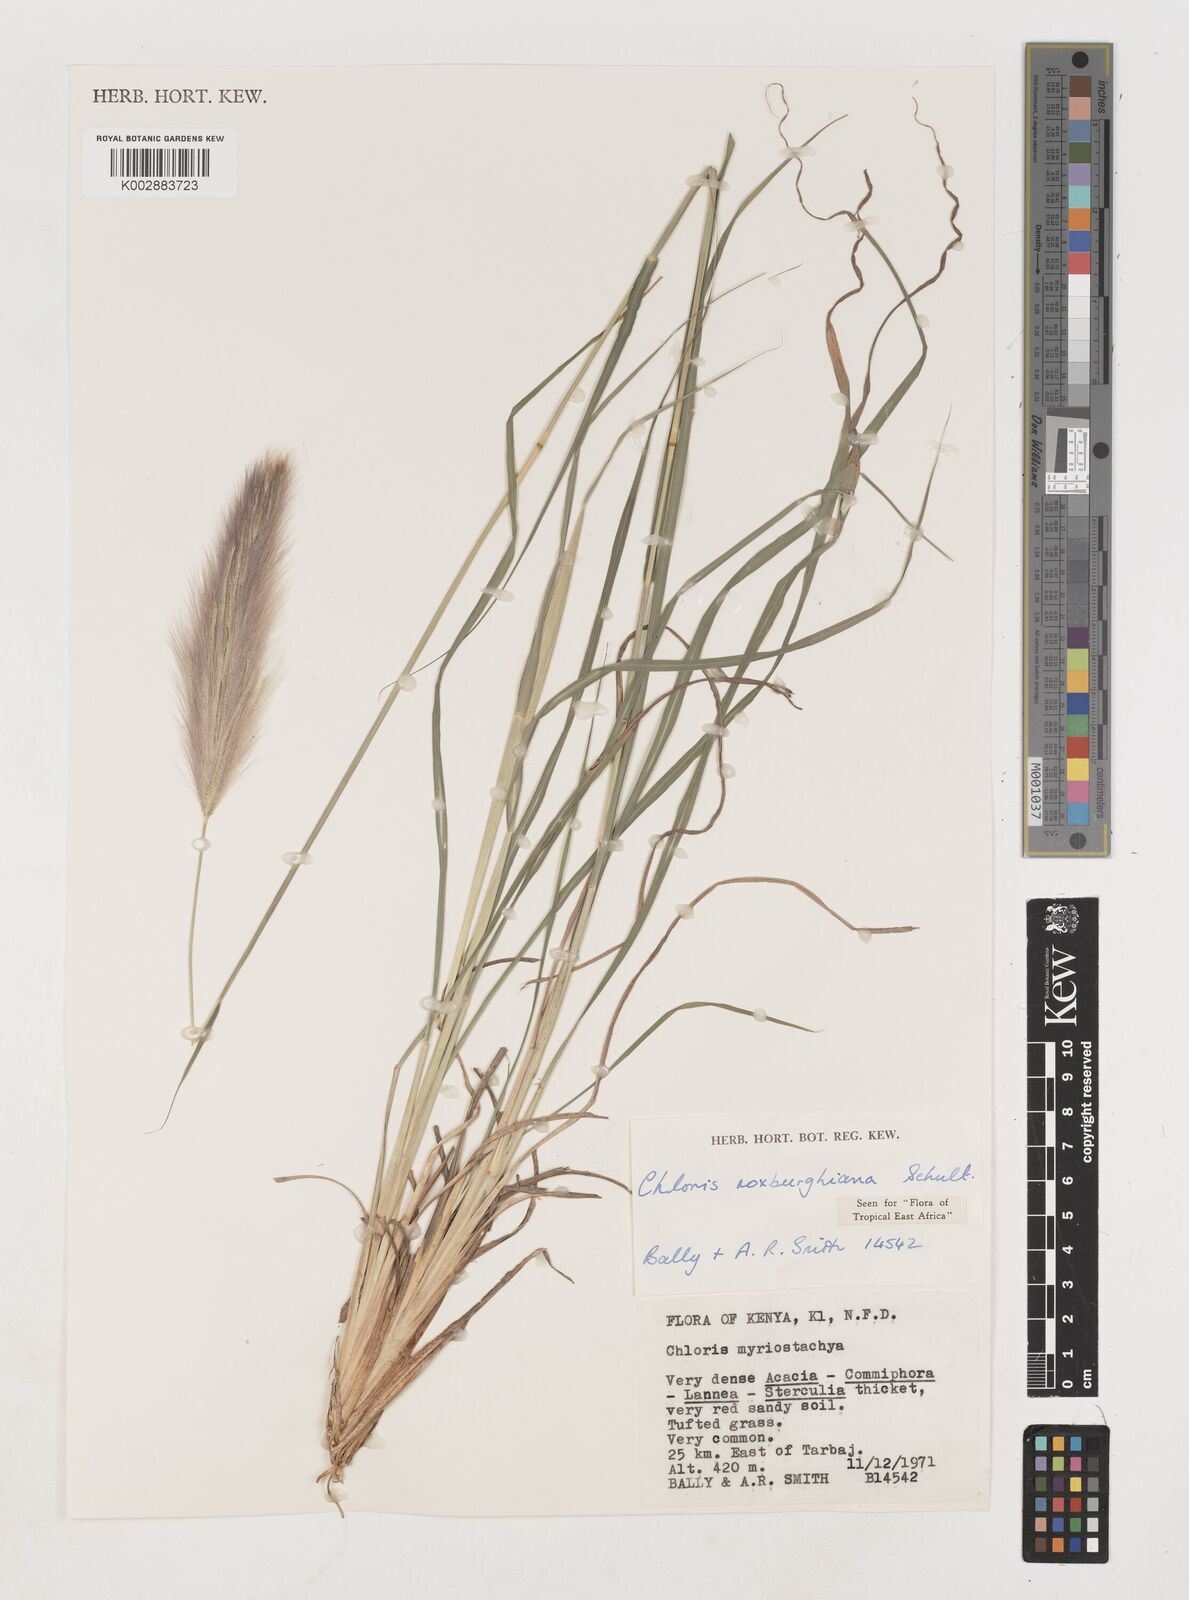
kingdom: Plantae
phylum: Tracheophyta
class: Liliopsida
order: Poales
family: Poaceae
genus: Tetrapogon
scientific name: Tetrapogon roxburghiana
